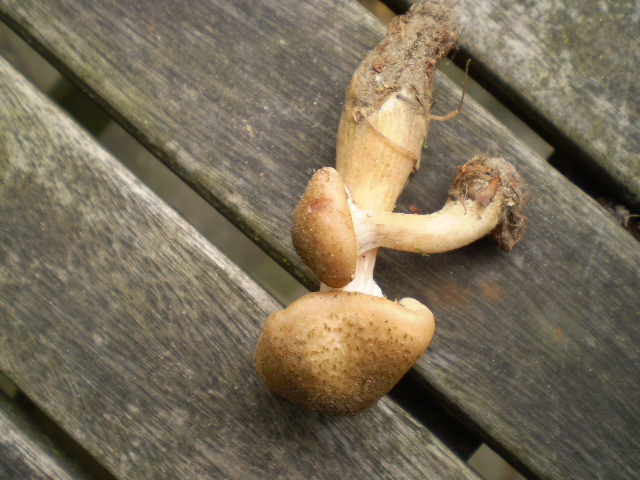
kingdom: Fungi
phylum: Basidiomycota
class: Agaricomycetes
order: Agaricales
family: Physalacriaceae
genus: Armillaria
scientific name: Armillaria lutea
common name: køllestokket honningsvamp
